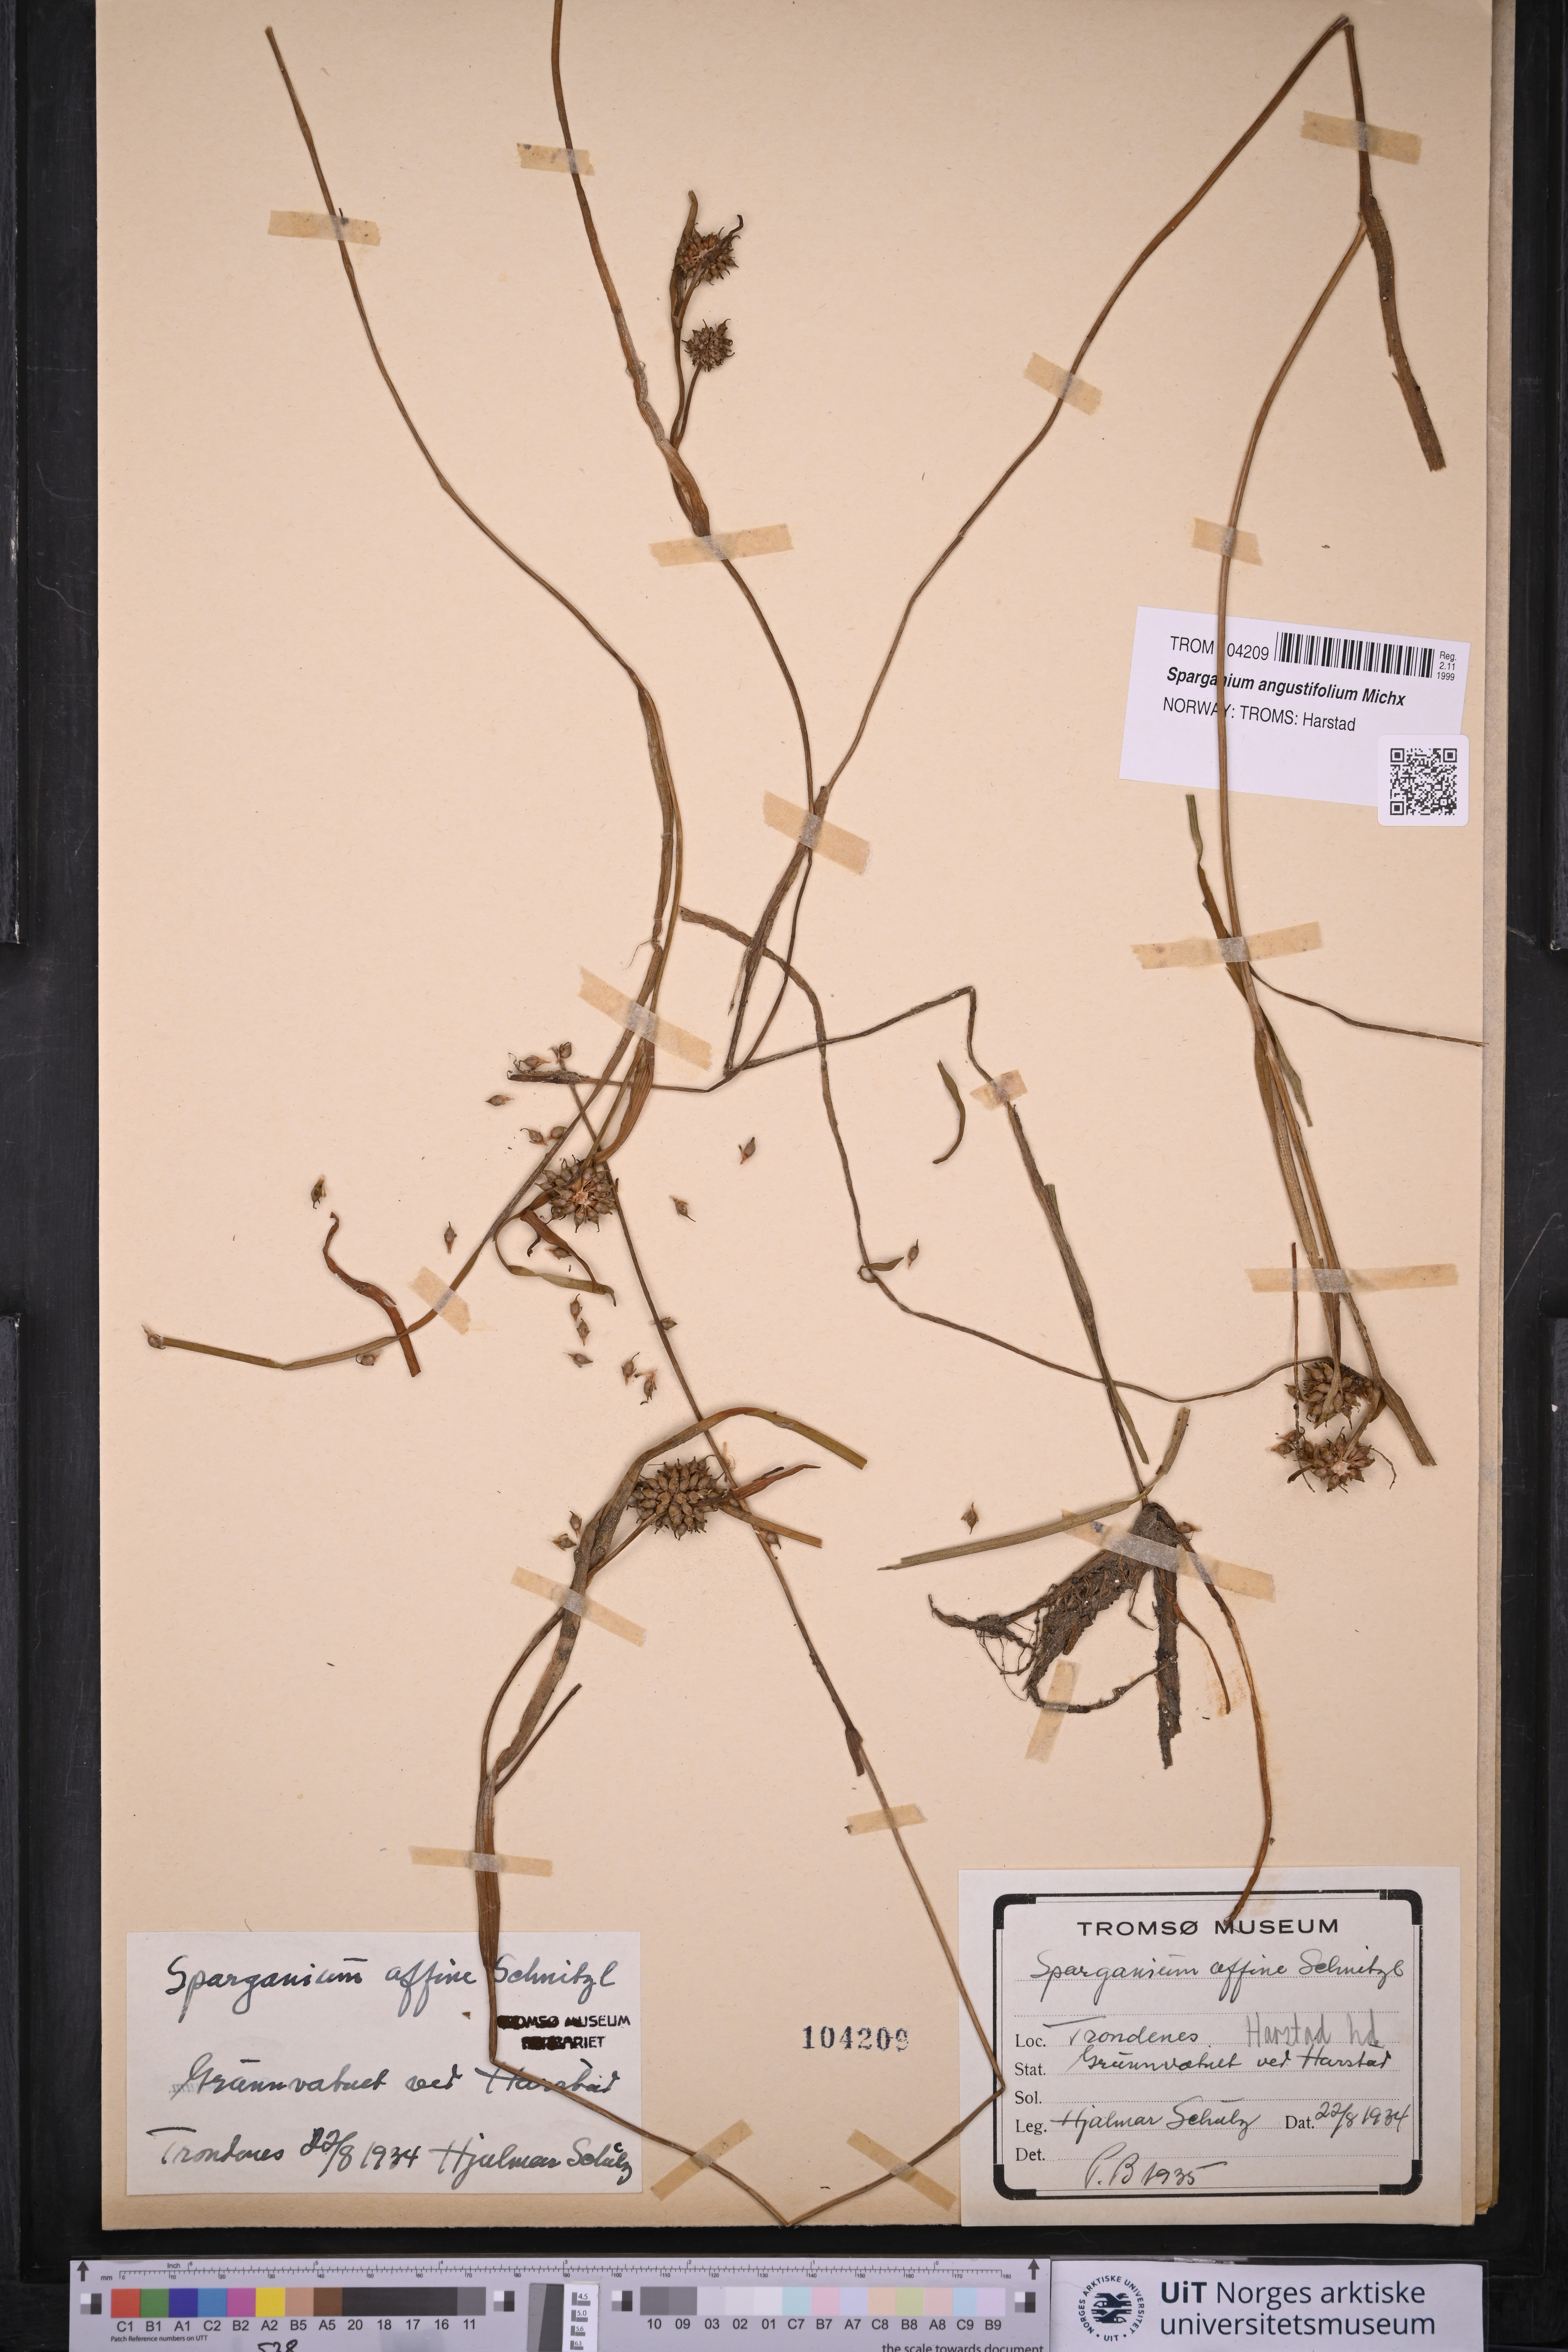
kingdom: Plantae
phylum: Tracheophyta
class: Liliopsida
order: Poales
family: Typhaceae
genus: Sparganium
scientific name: Sparganium angustifolium
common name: Floating bur-reed
